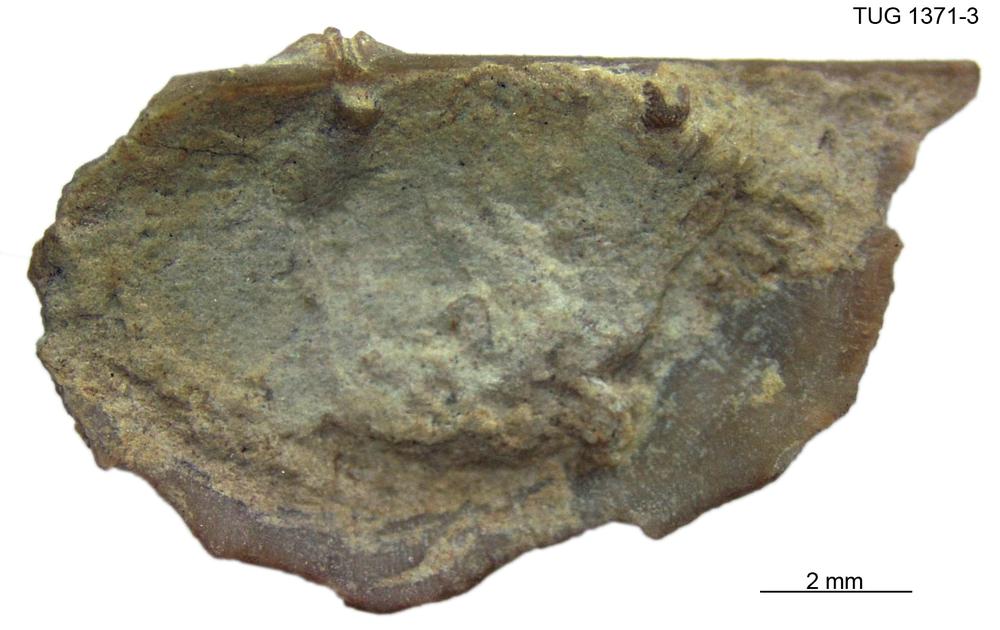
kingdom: Animalia
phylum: Brachiopoda
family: Sowerbyellidae
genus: Eochonetes
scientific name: Eochonetes
